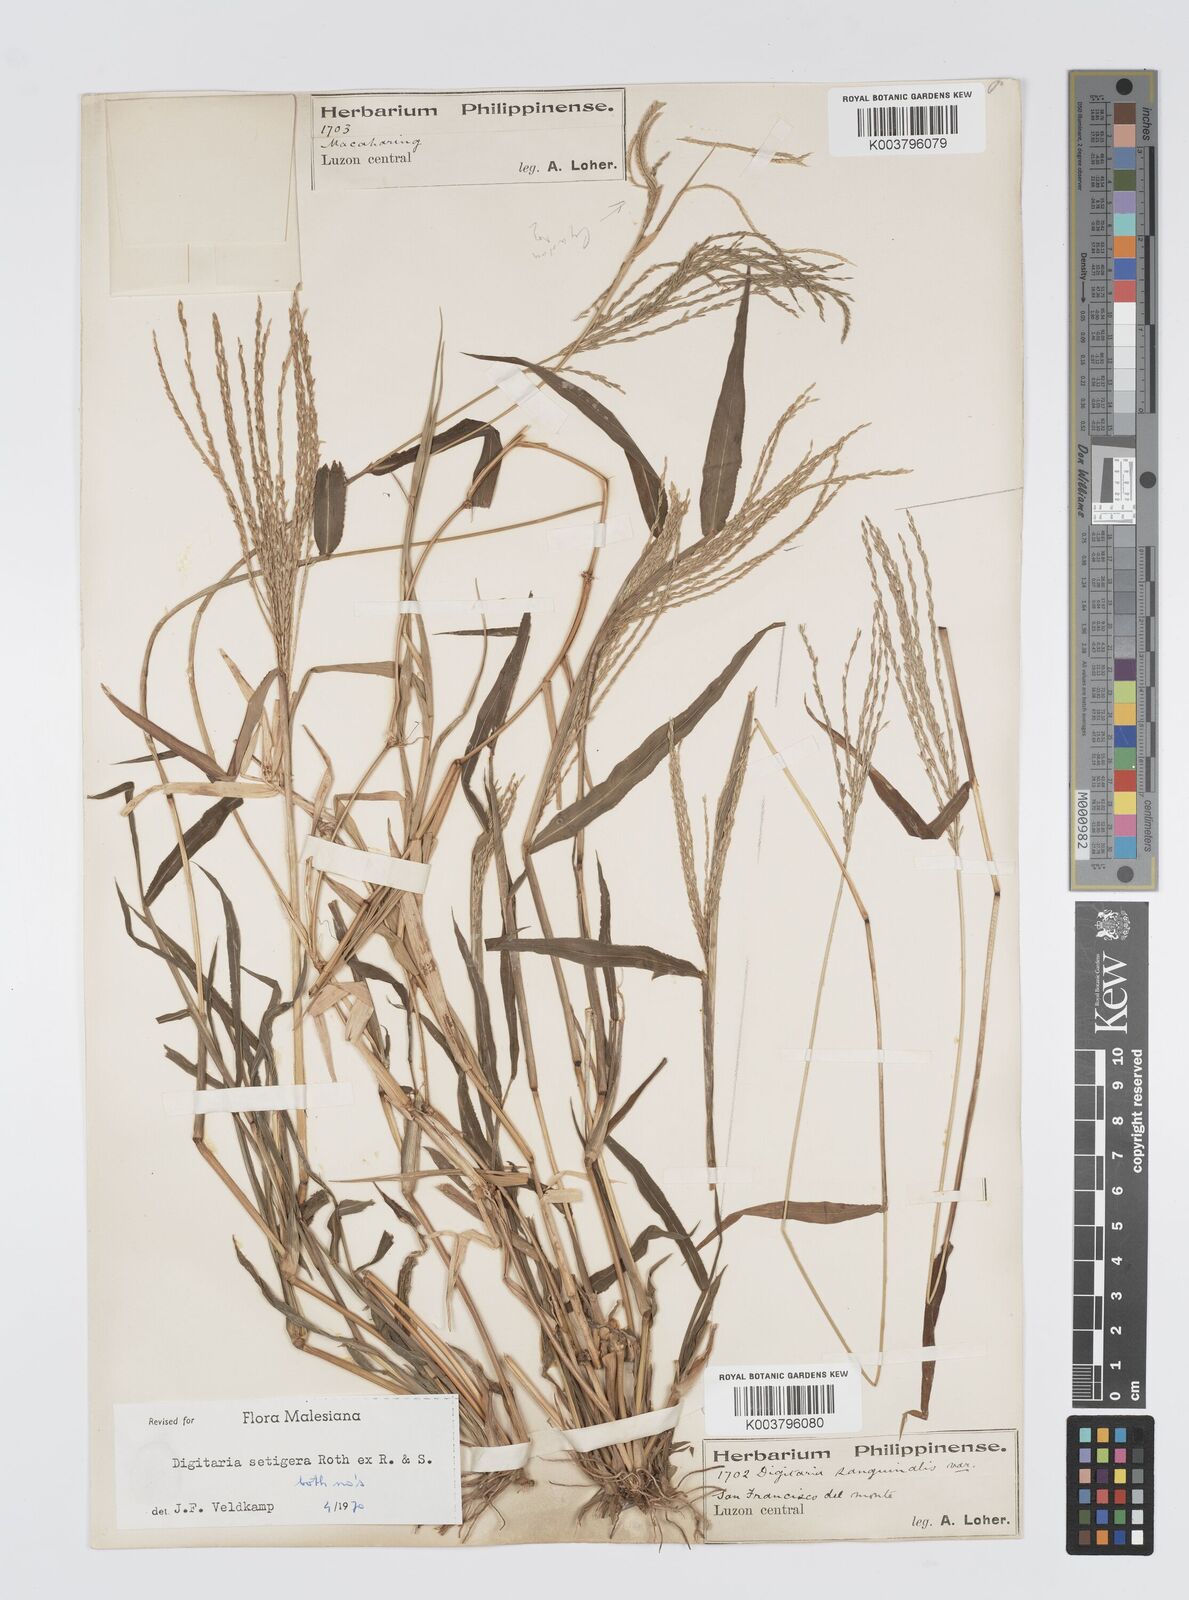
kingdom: Plantae
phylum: Tracheophyta
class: Liliopsida
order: Poales
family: Poaceae
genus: Digitaria
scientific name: Digitaria setigera
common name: East indian crabgrass
